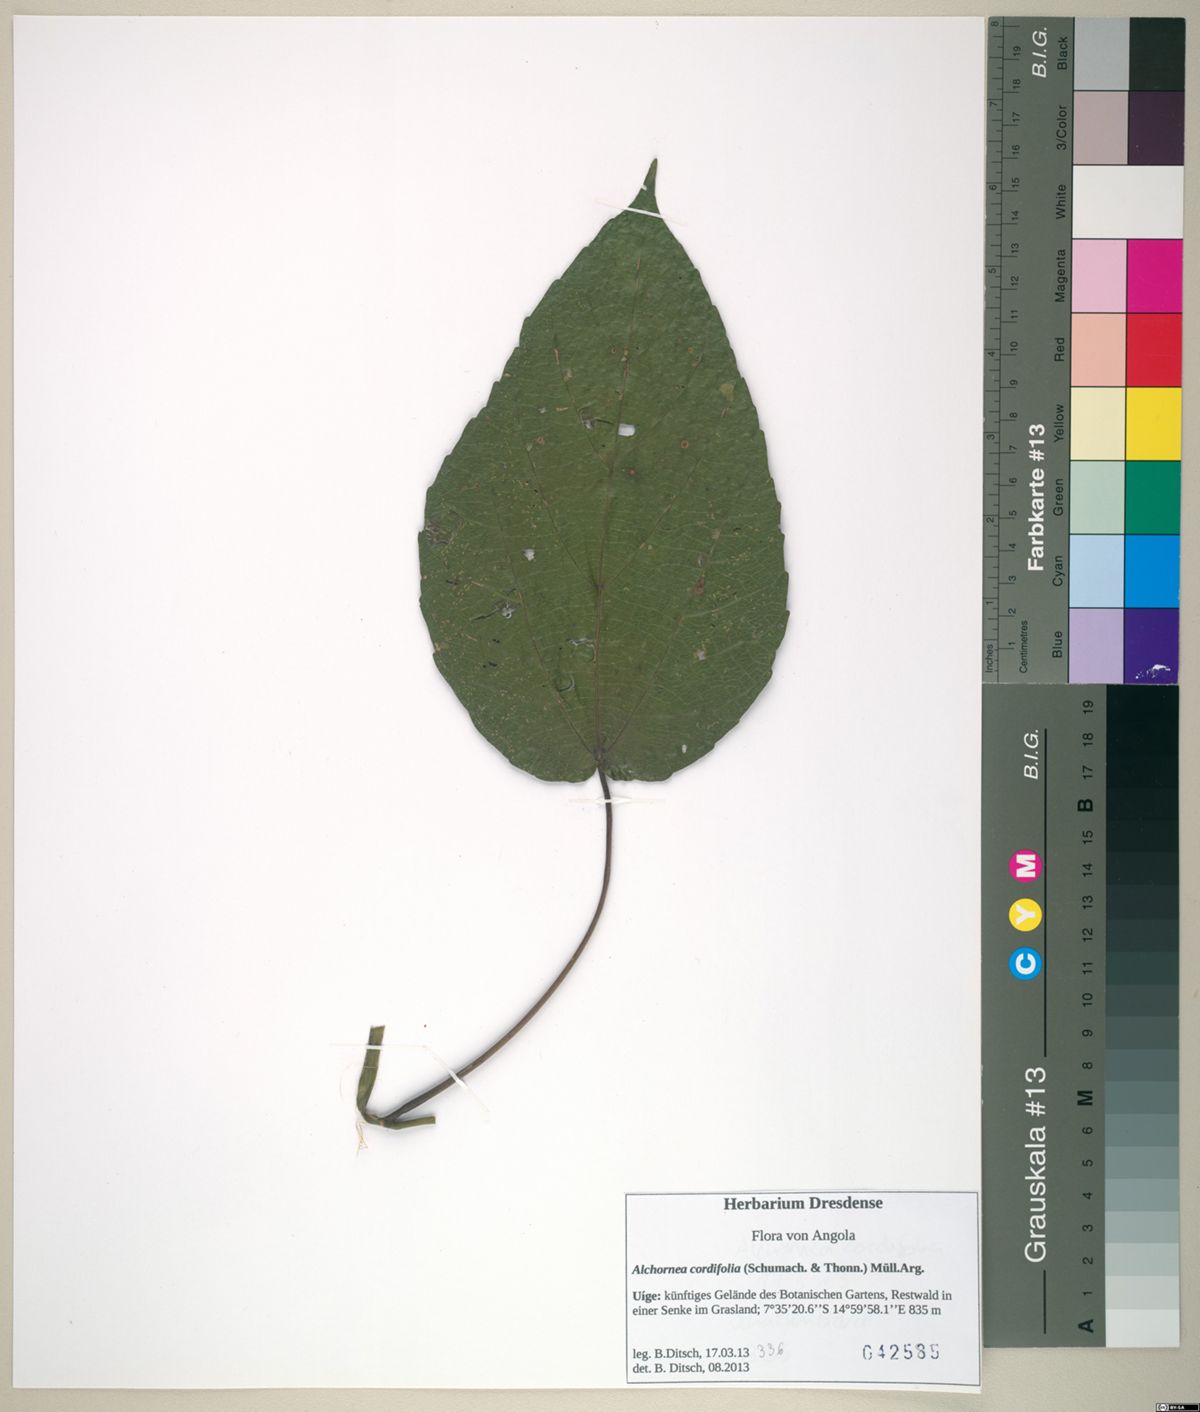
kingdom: Plantae
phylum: Tracheophyta
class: Magnoliopsida
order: Malpighiales
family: Euphorbiaceae
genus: Alchornea
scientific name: Alchornea cordifolia
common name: Christmasbush
